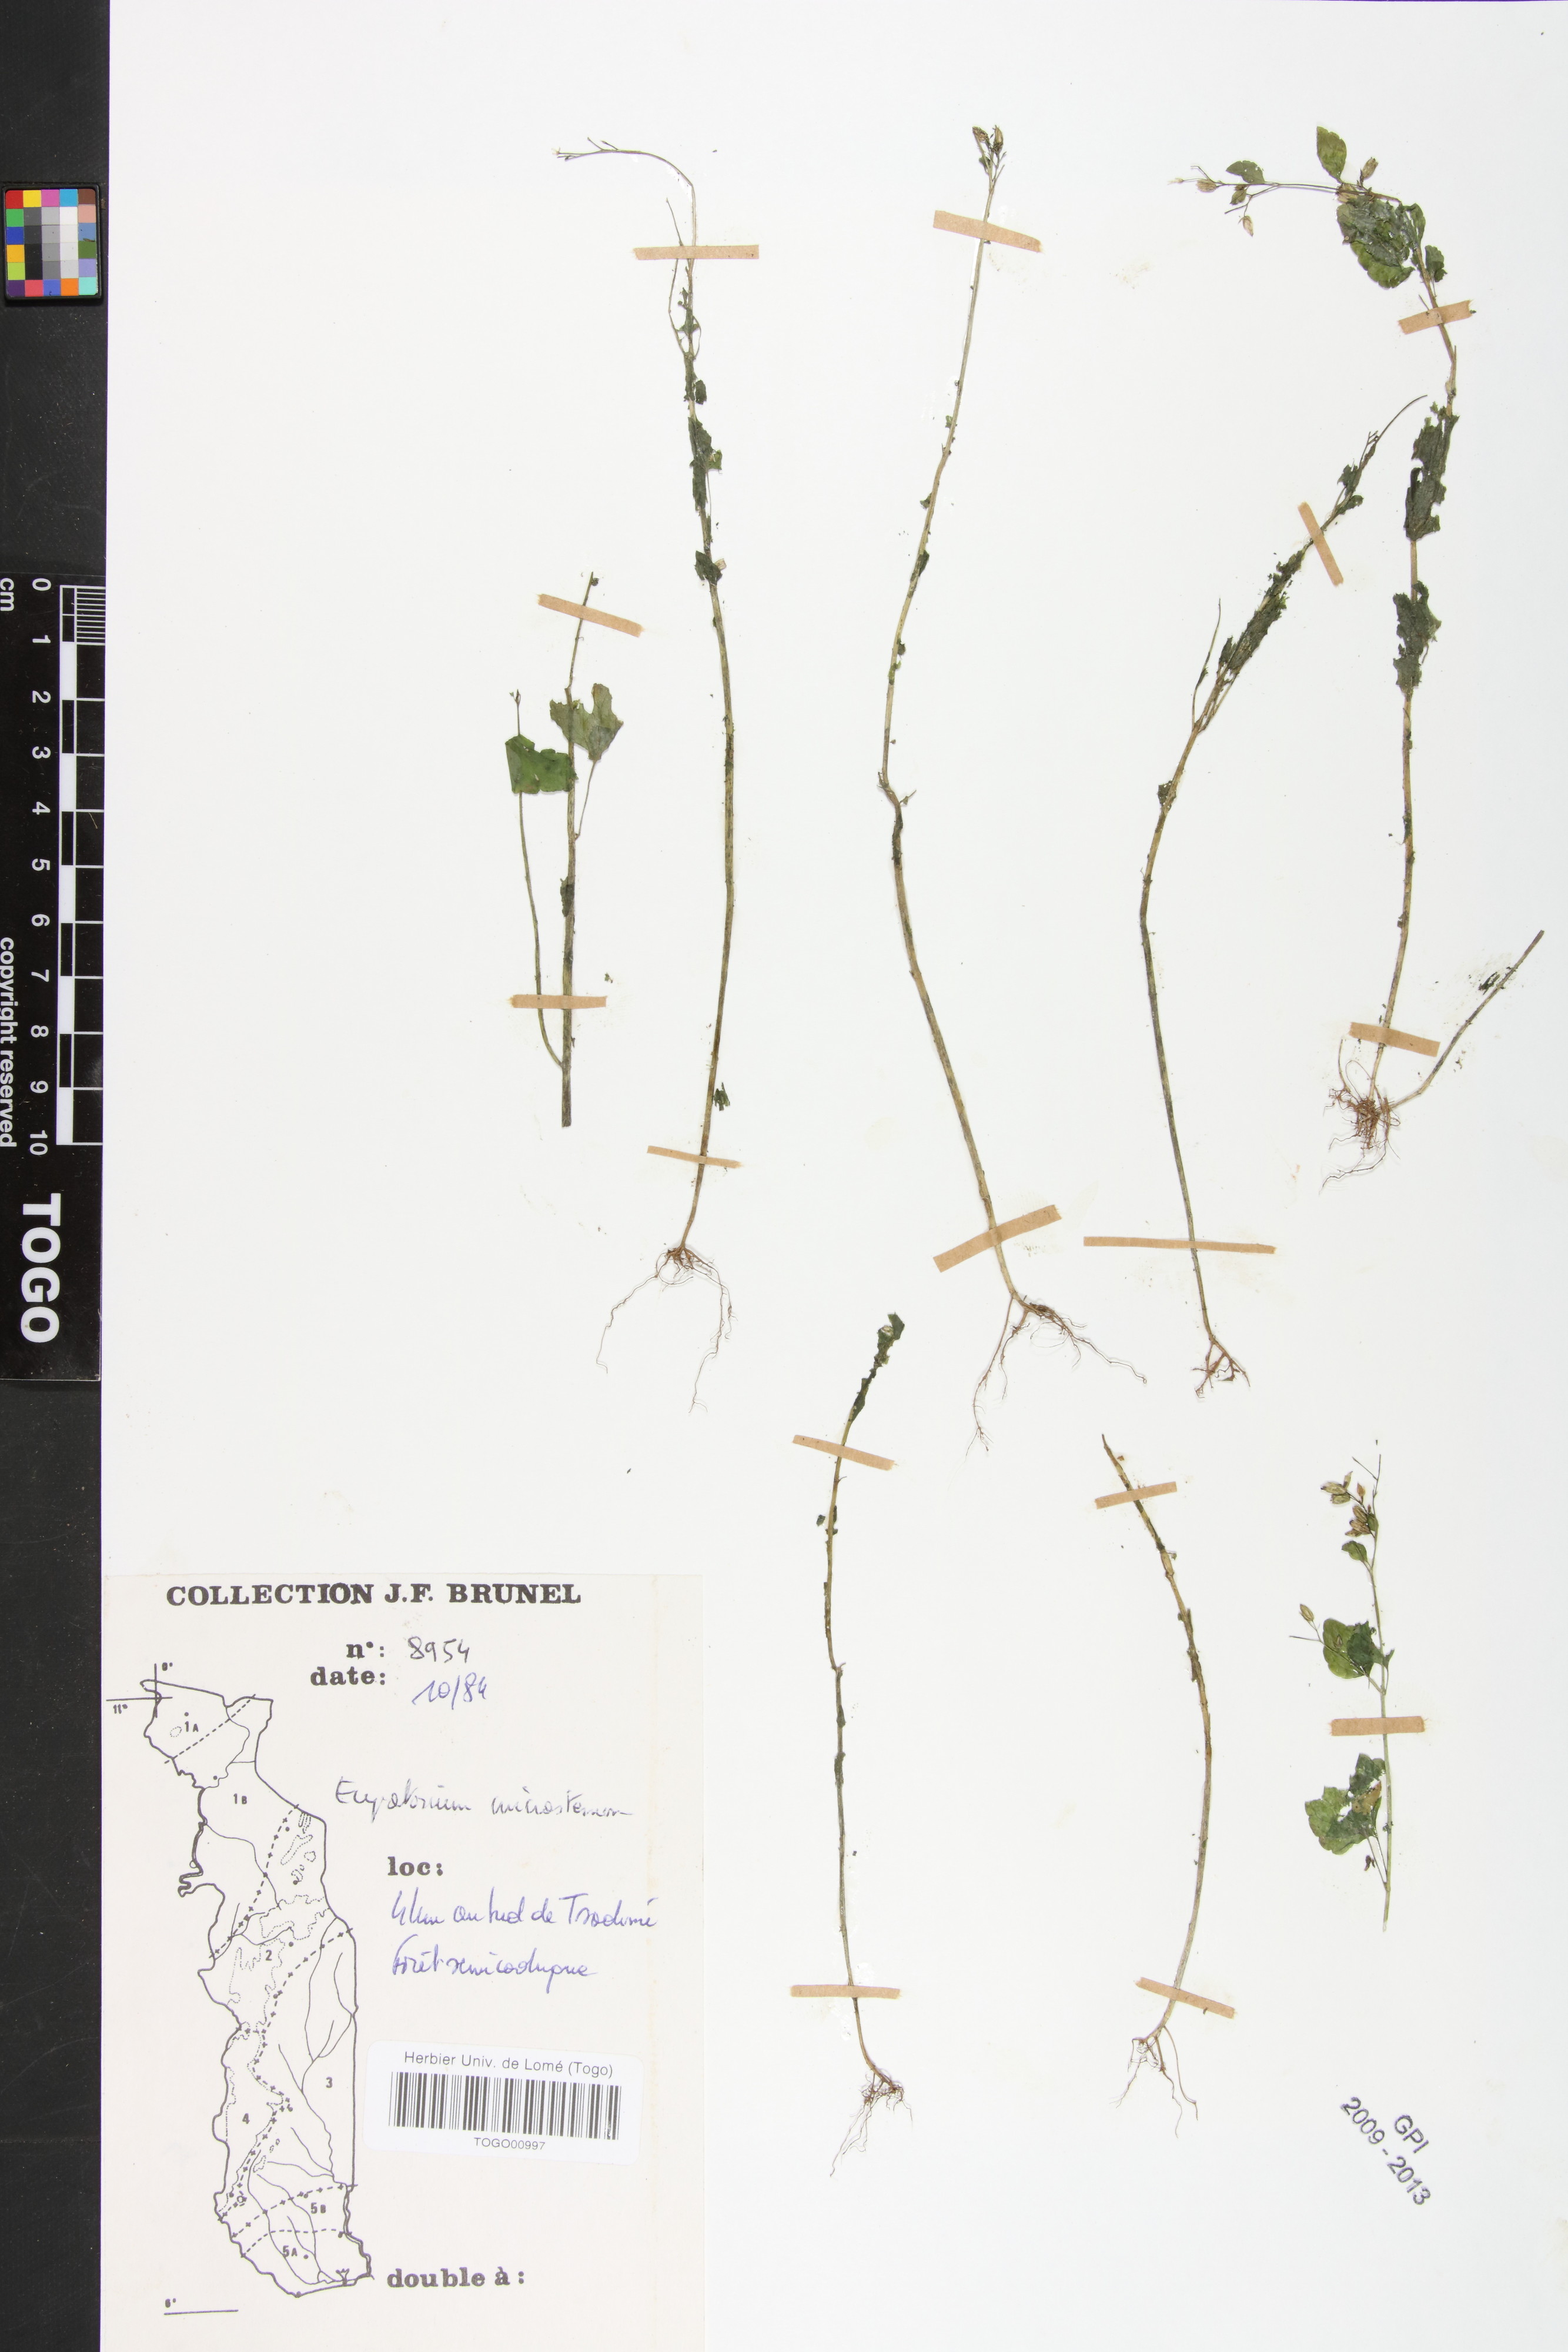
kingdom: Plantae
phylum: Tracheophyta
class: Magnoliopsida
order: Asterales
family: Asteraceae
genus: Fleischmannia
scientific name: Fleischmannia microstemon
